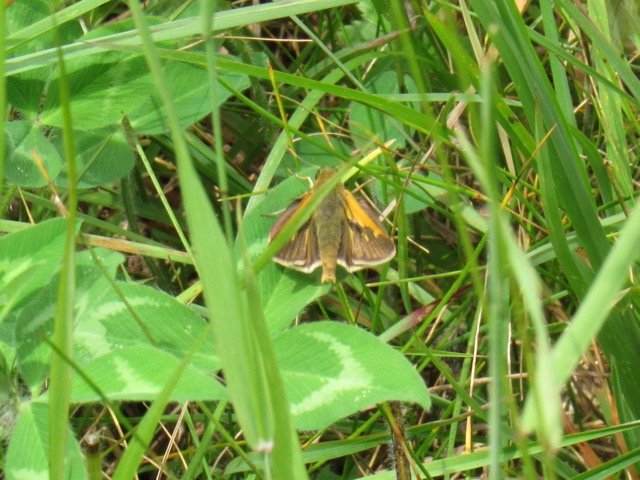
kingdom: Animalia
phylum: Arthropoda
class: Insecta
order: Lepidoptera
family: Hesperiidae
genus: Polites
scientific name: Polites themistocles
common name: Tawny-edged Skipper
